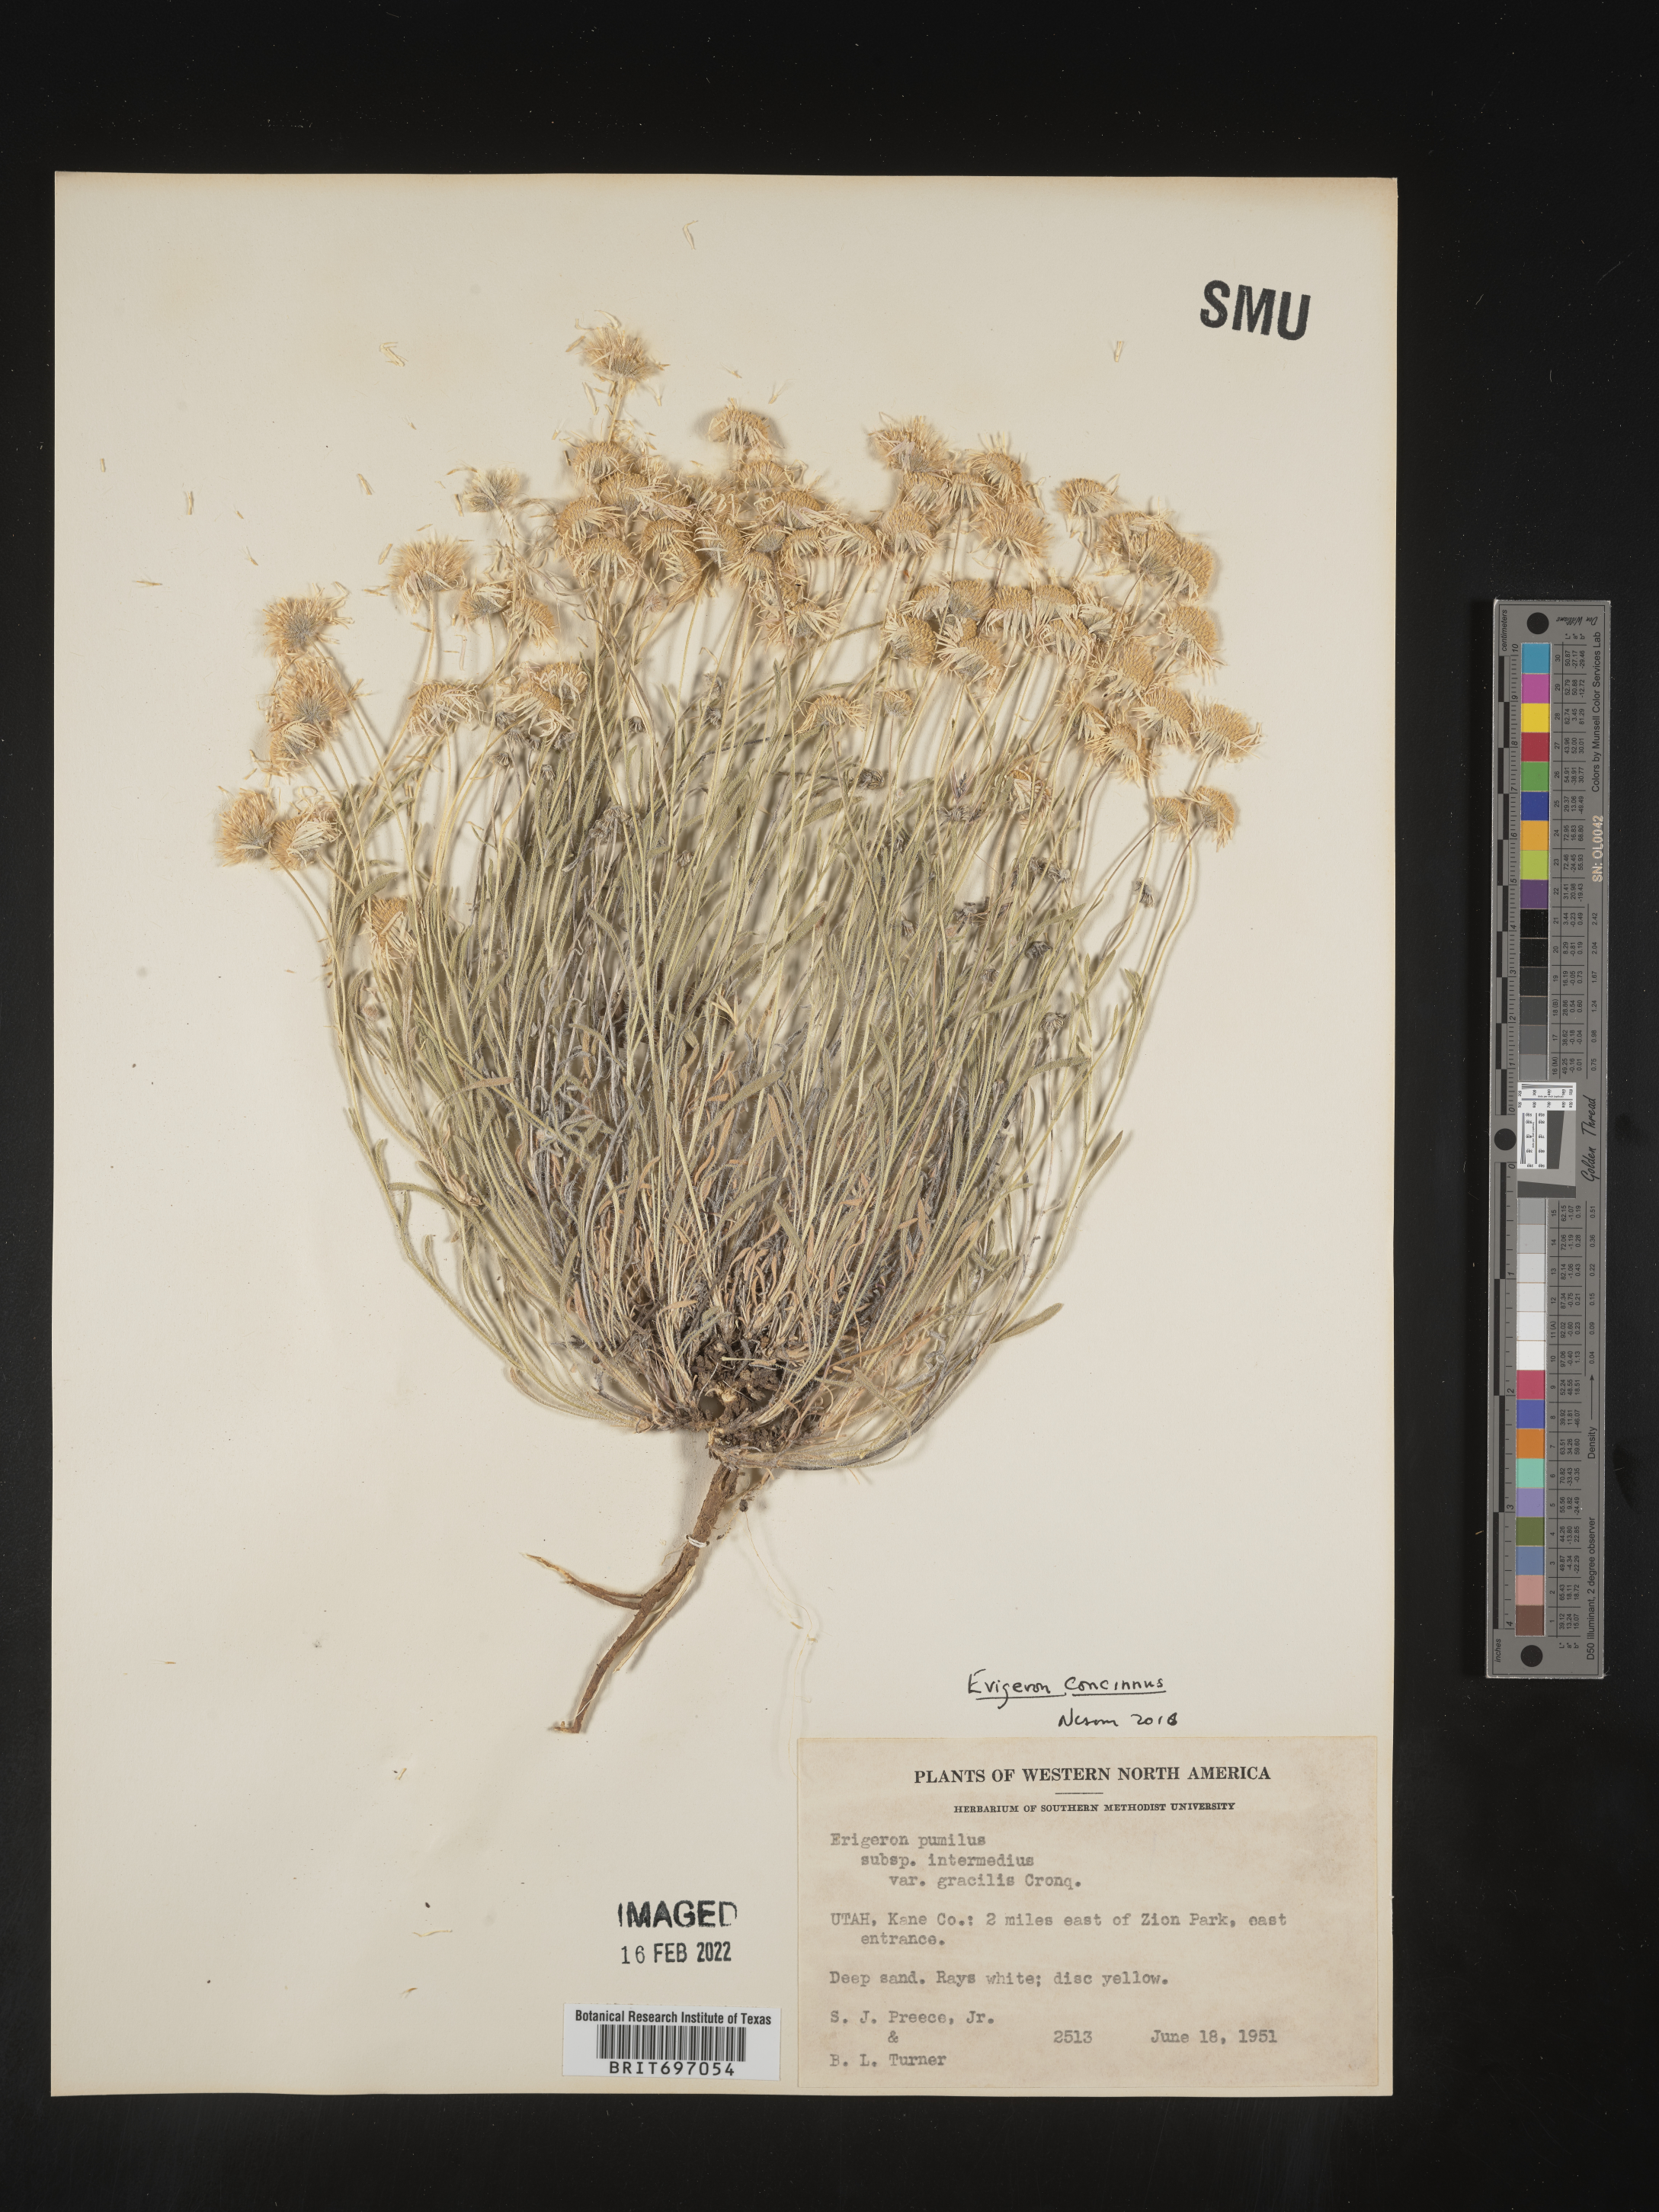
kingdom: Plantae
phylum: Tracheophyta
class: Magnoliopsida
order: Asterales
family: Asteraceae
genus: Erigeron
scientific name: Erigeron concinnus
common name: Navajo fleabane
